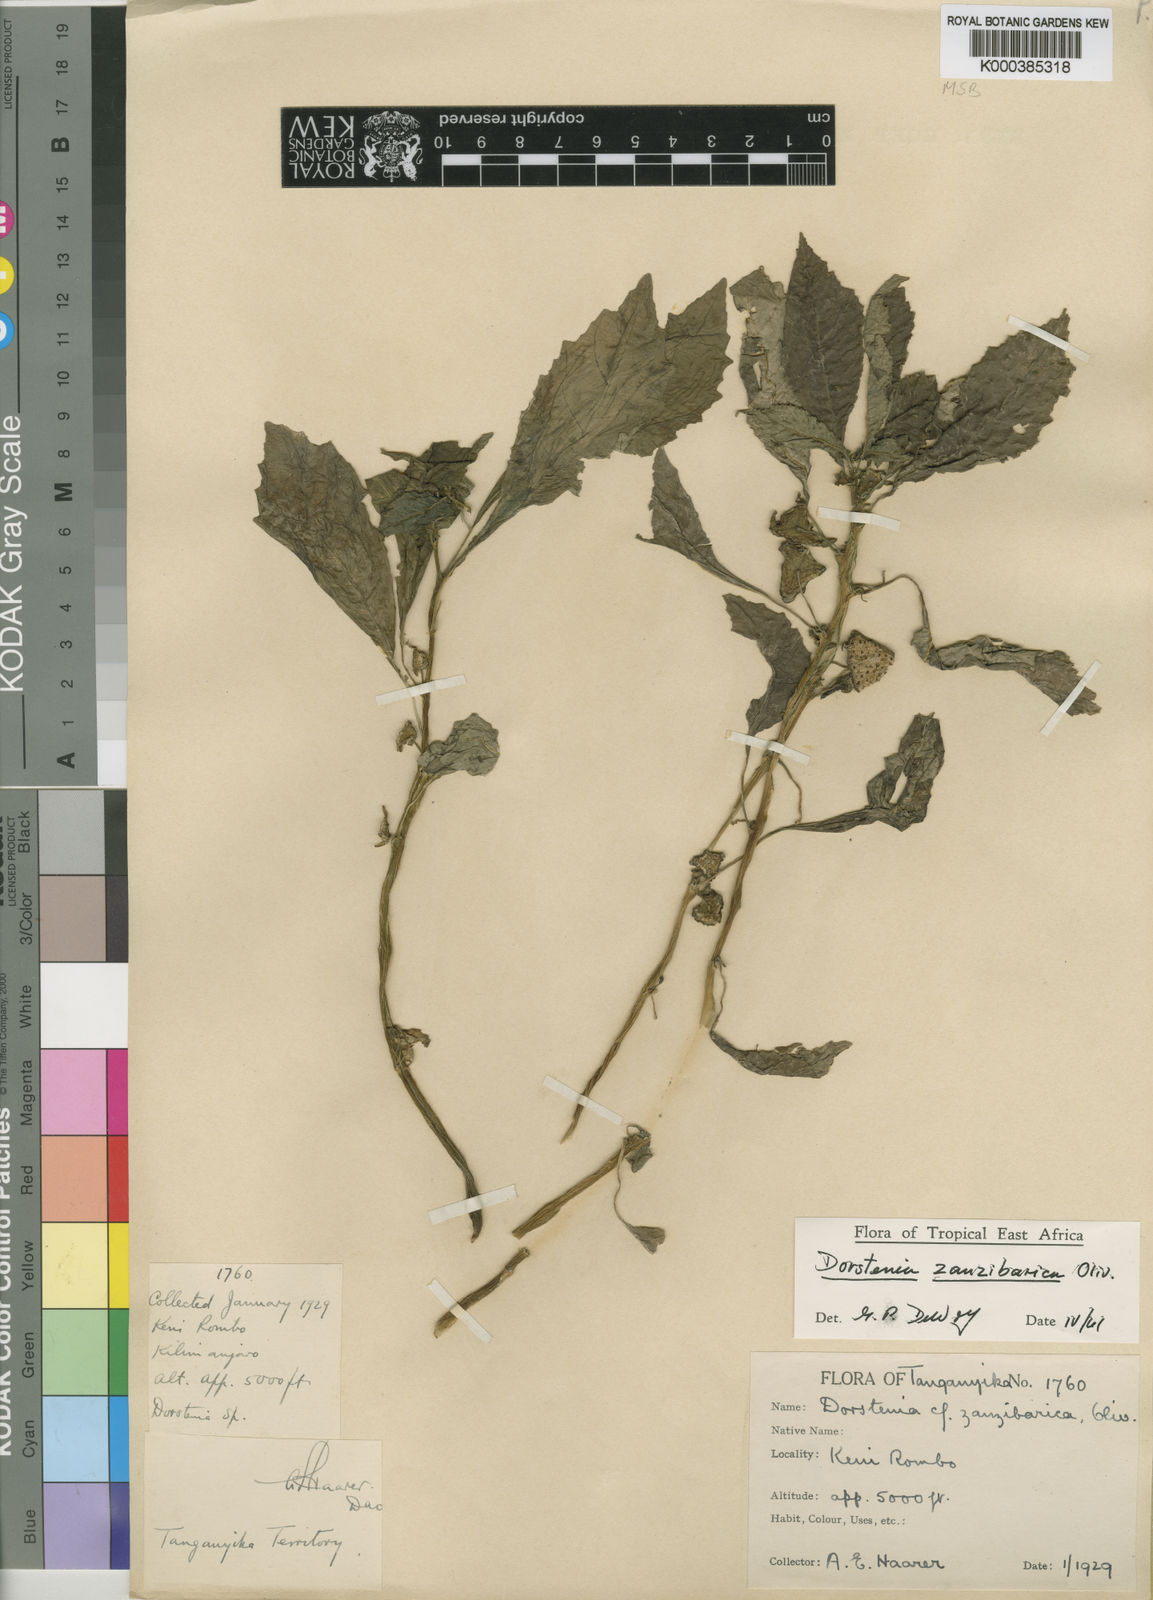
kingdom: Plantae
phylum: Tracheophyta
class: Magnoliopsida
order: Rosales
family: Moraceae
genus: Dorstenia
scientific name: Dorstenia zanzibarica
